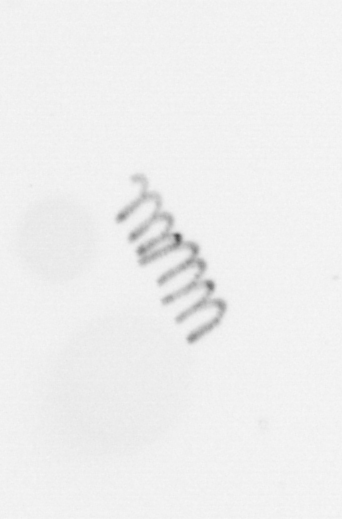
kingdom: Chromista
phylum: Ochrophyta
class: Bacillariophyceae
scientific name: Bacillariophyceae
